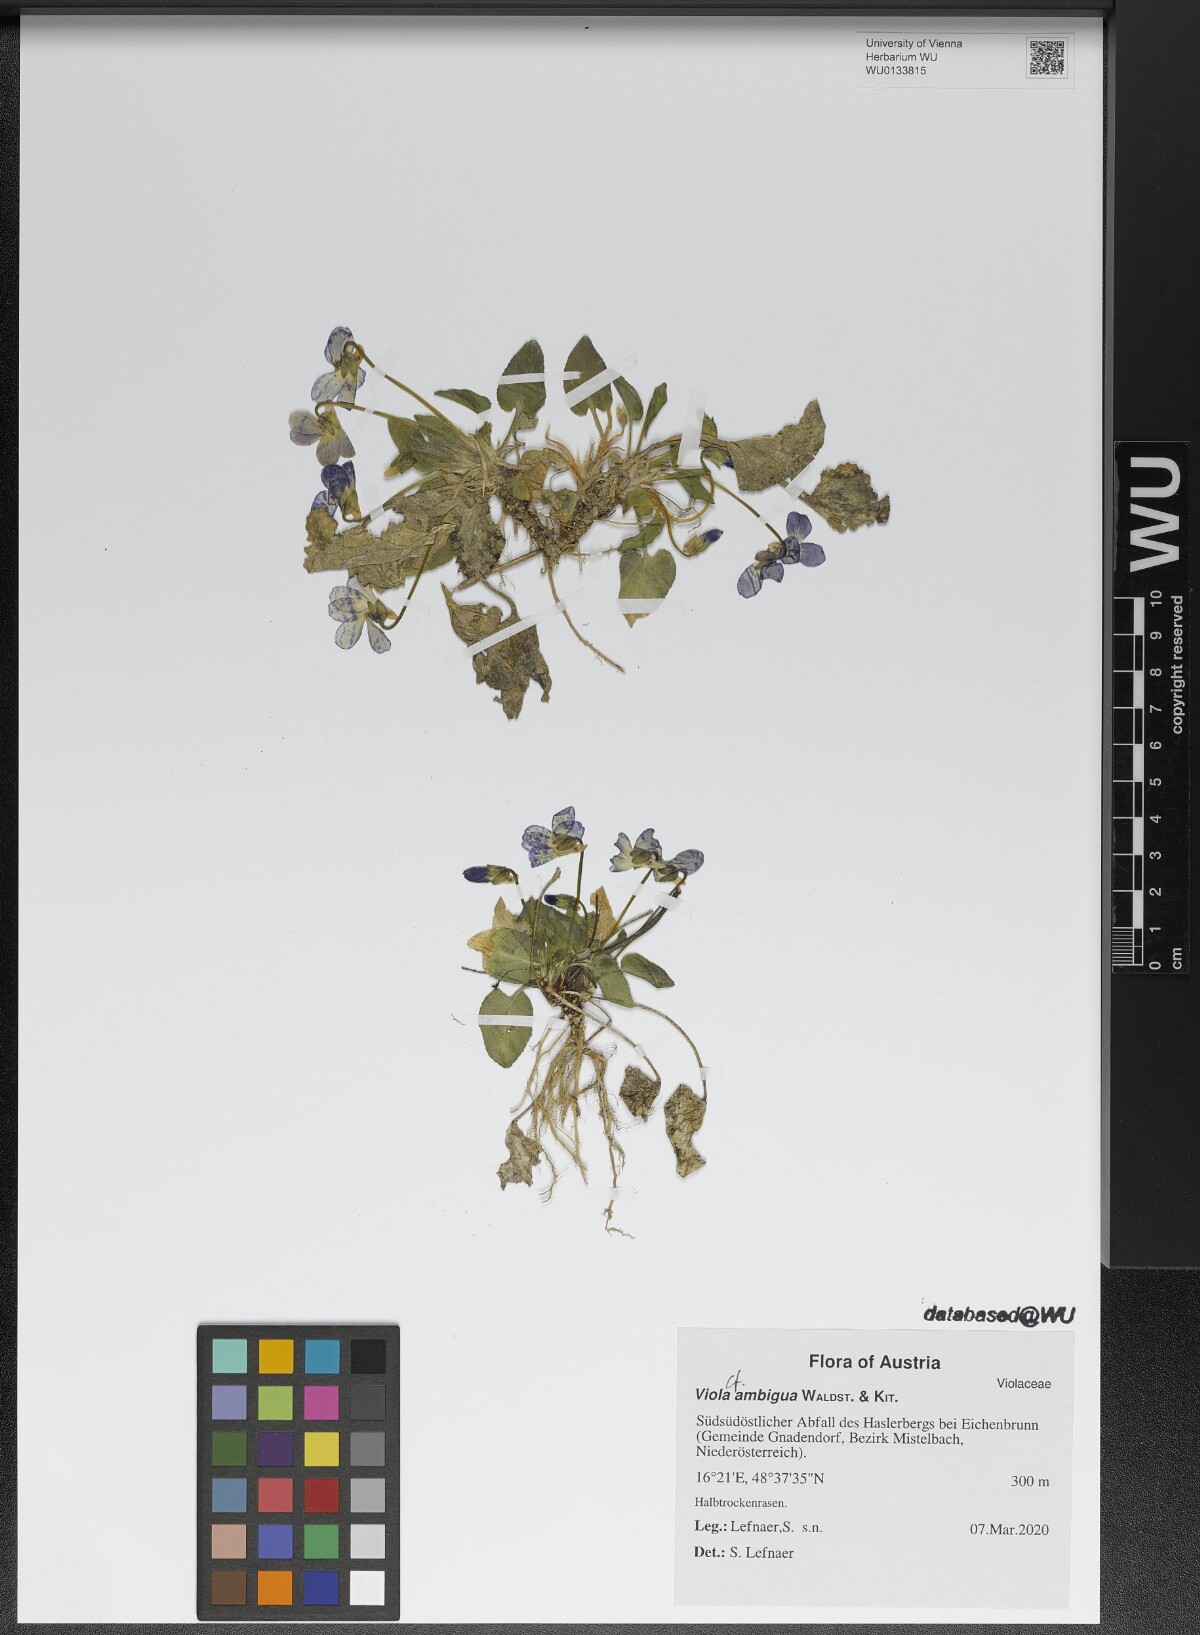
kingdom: Plantae
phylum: Tracheophyta
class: Magnoliopsida
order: Malpighiales
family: Violaceae
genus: Viola
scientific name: Viola ambigua
